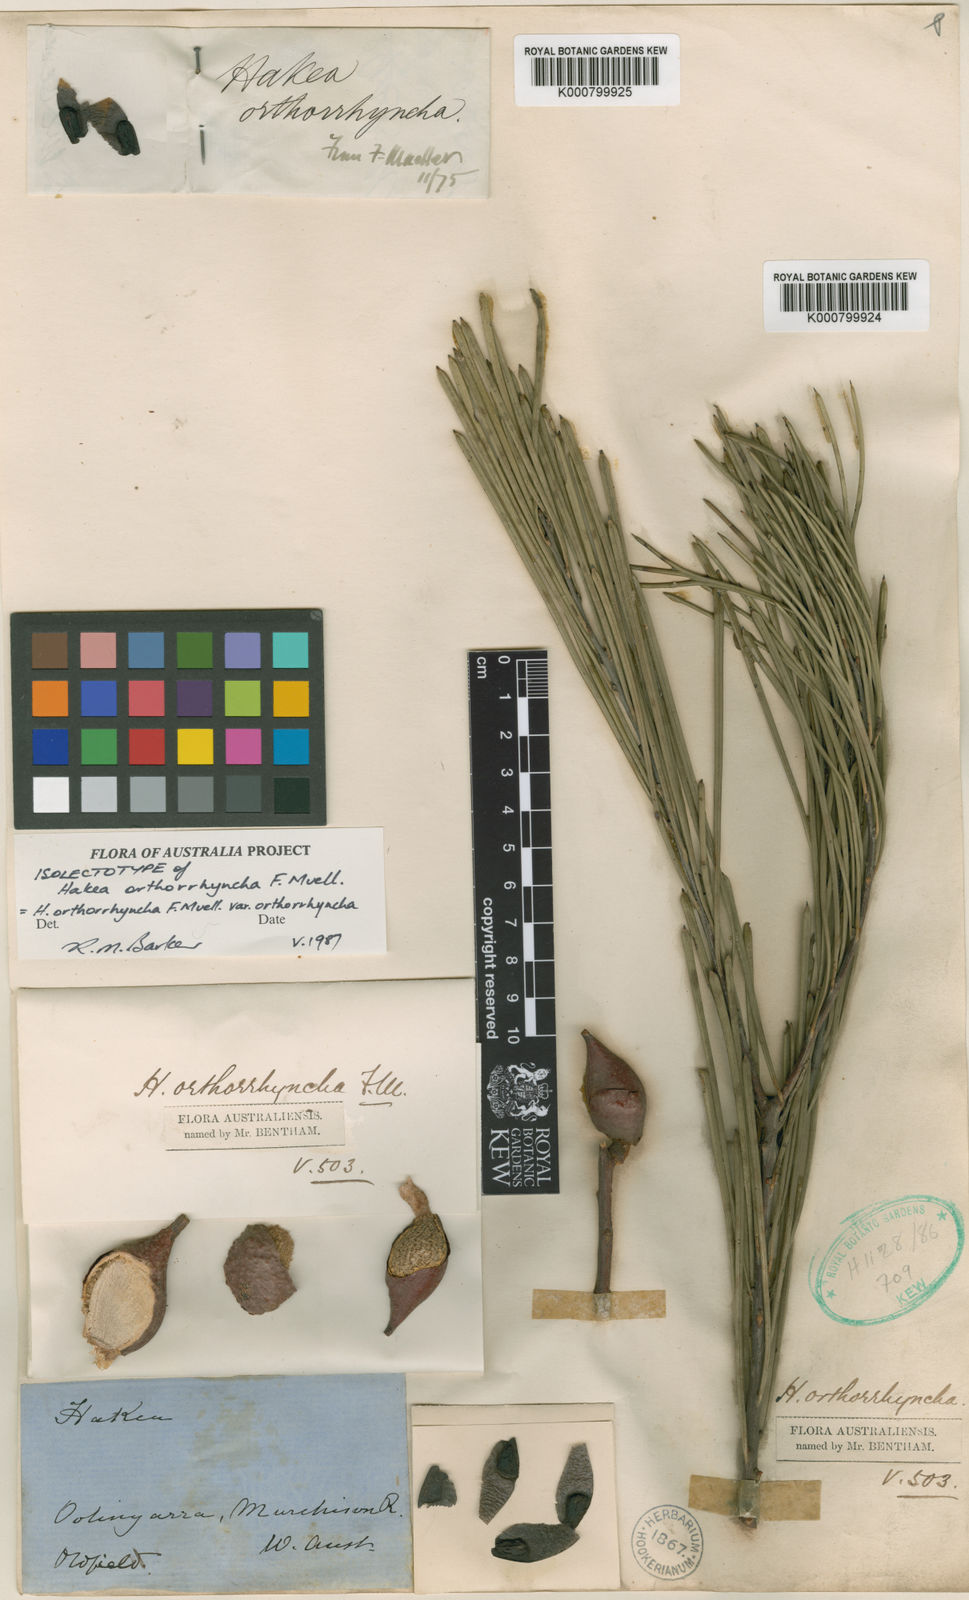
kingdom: Plantae
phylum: Tracheophyta
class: Magnoliopsida
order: Proteales
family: Proteaceae
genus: Hakea
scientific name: Hakea orthorrhyncha
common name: Bird beak hakea
